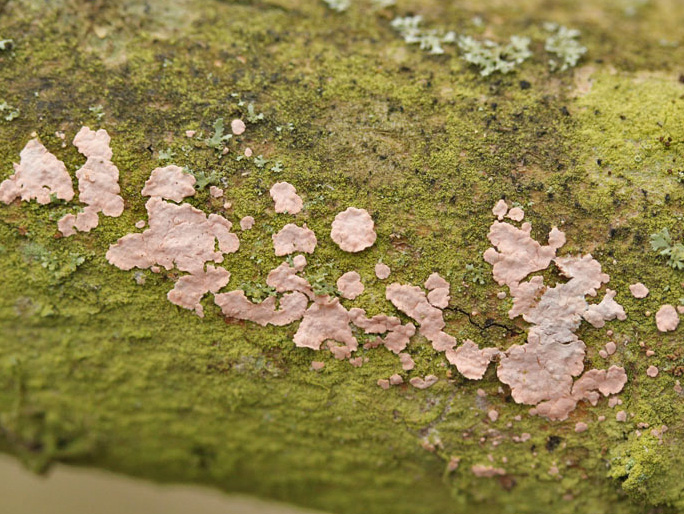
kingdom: Fungi
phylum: Basidiomycota
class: Agaricomycetes
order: Russulales
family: Peniophoraceae
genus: Peniophora
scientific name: Peniophora polygonia
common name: polygon-voksskind
